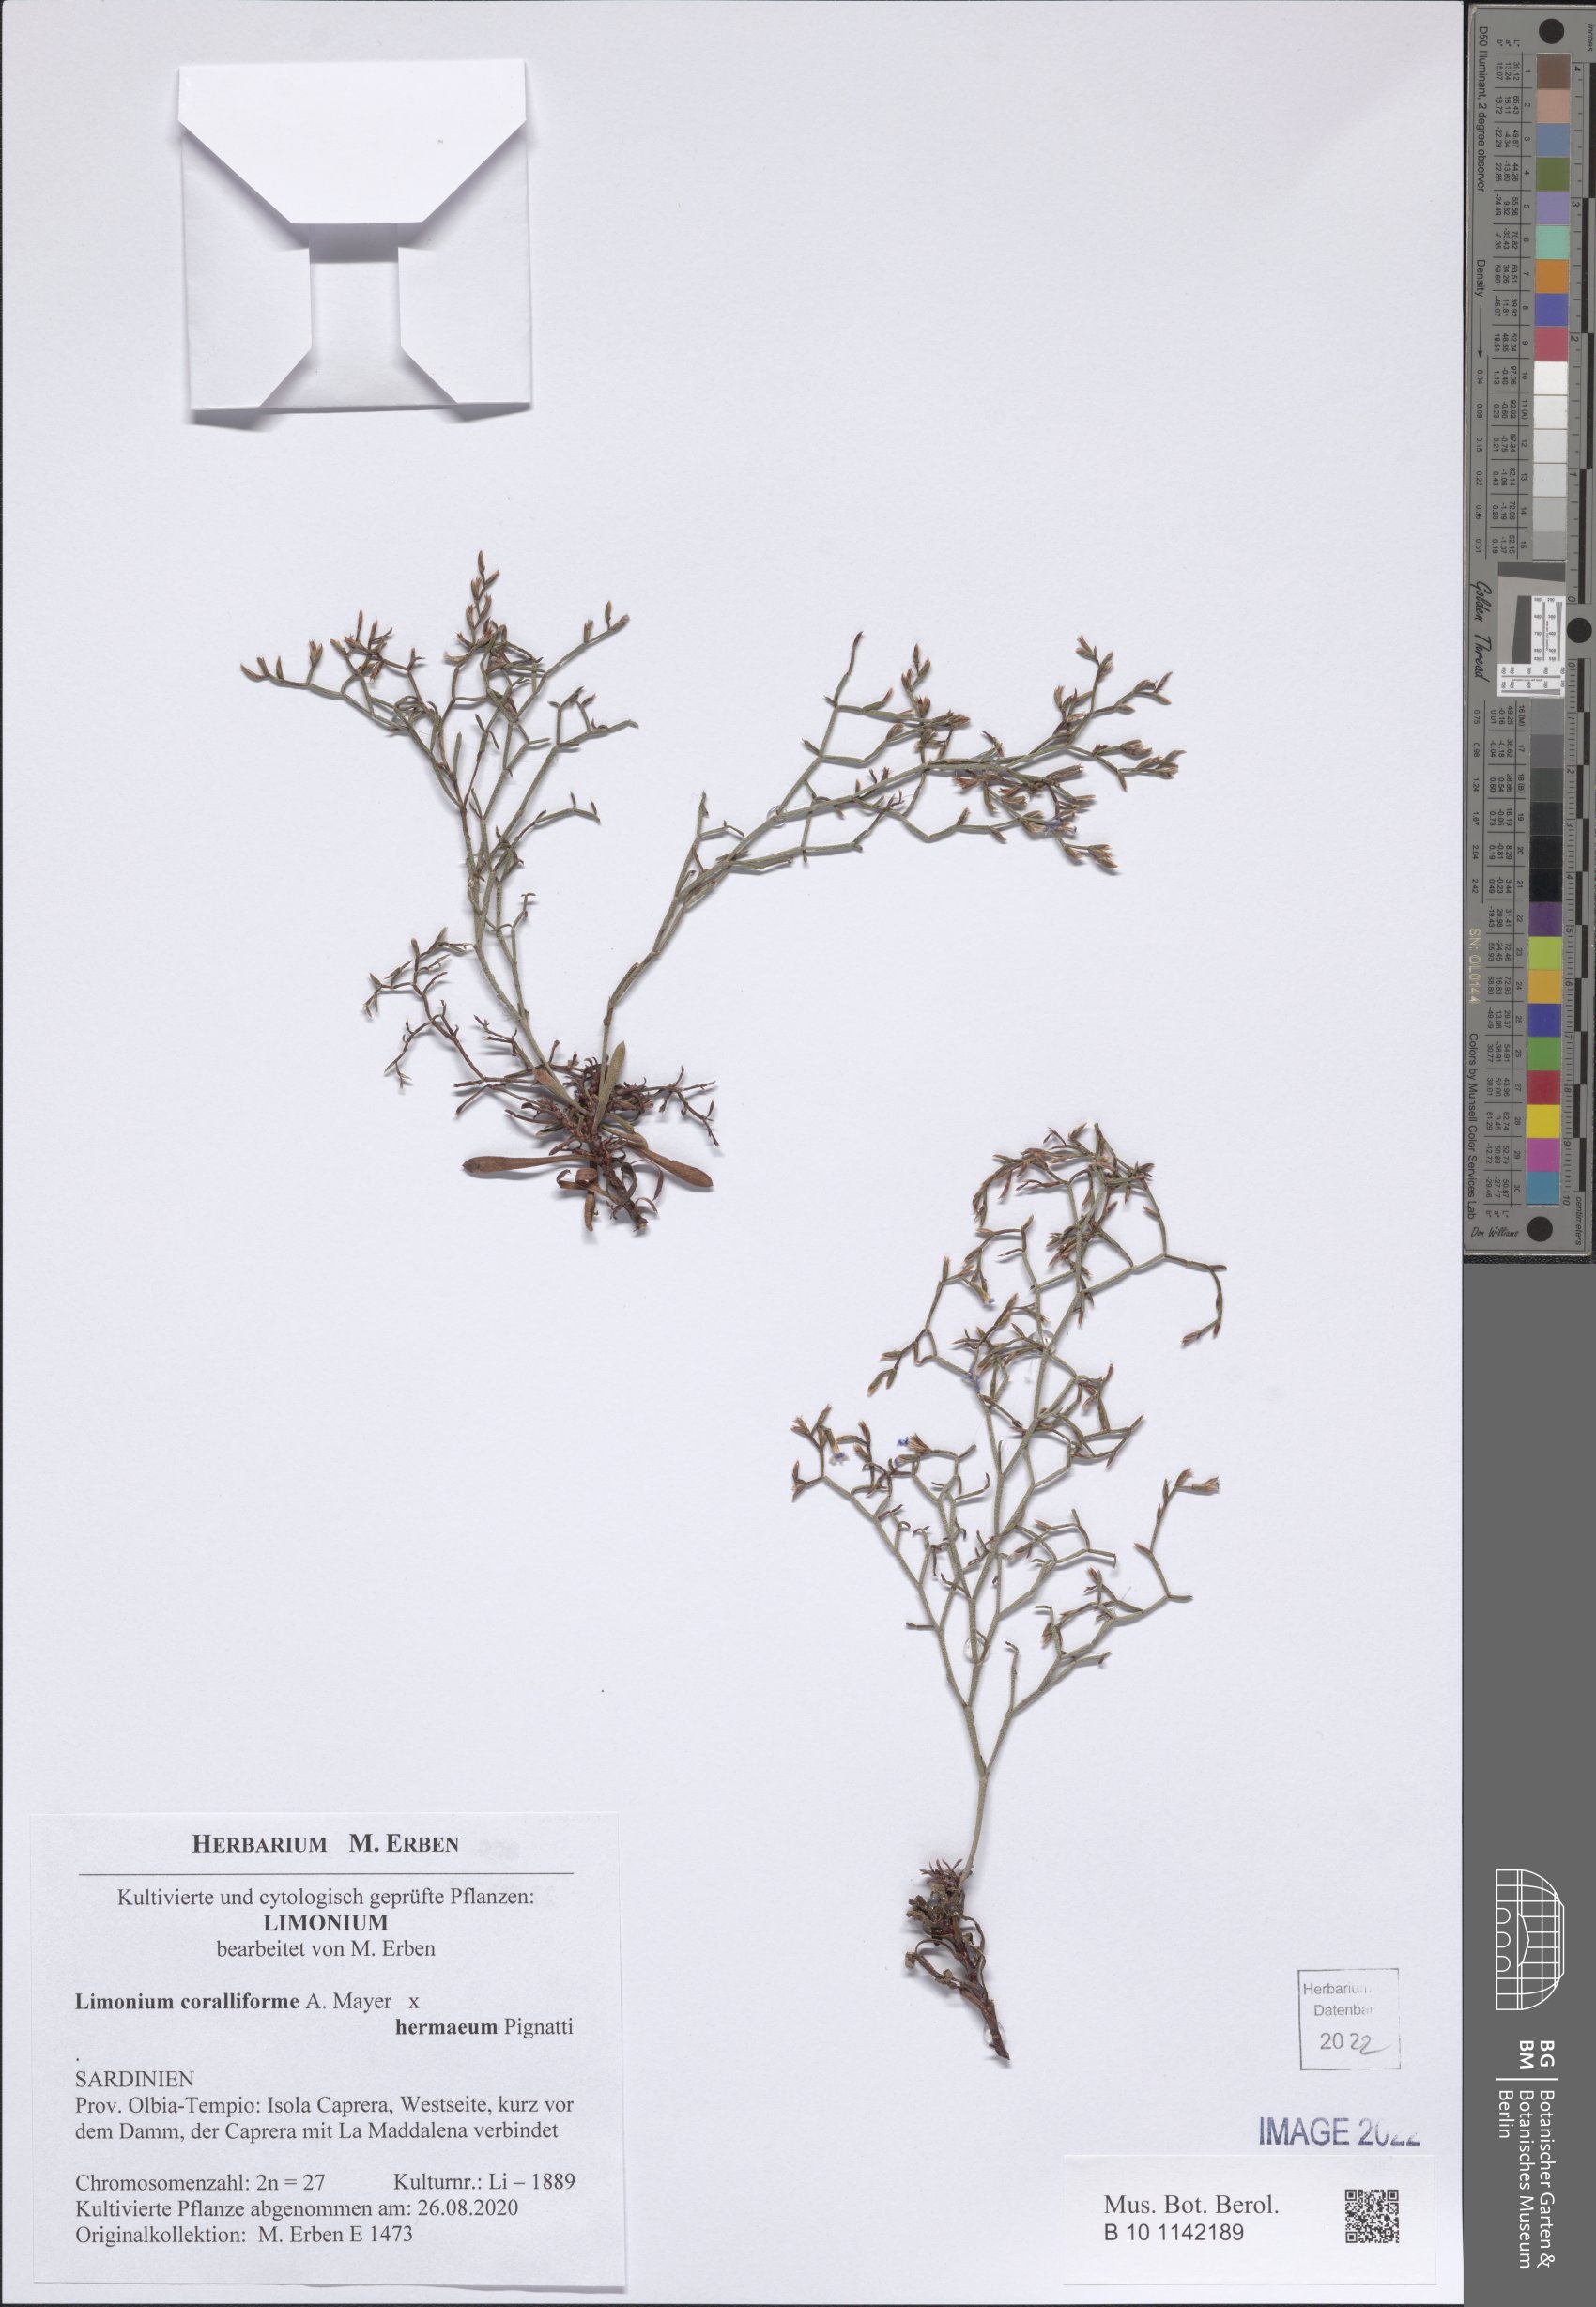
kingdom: Plantae
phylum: Tracheophyta
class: Magnoliopsida
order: Caryophyllales
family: Plumbaginaceae
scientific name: Plumbaginaceae
